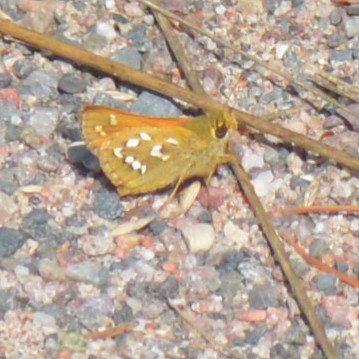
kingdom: Animalia
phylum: Arthropoda
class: Insecta
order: Lepidoptera
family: Hesperiidae
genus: Hesperia
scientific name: Hesperia comma
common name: Common Branded Skipper
